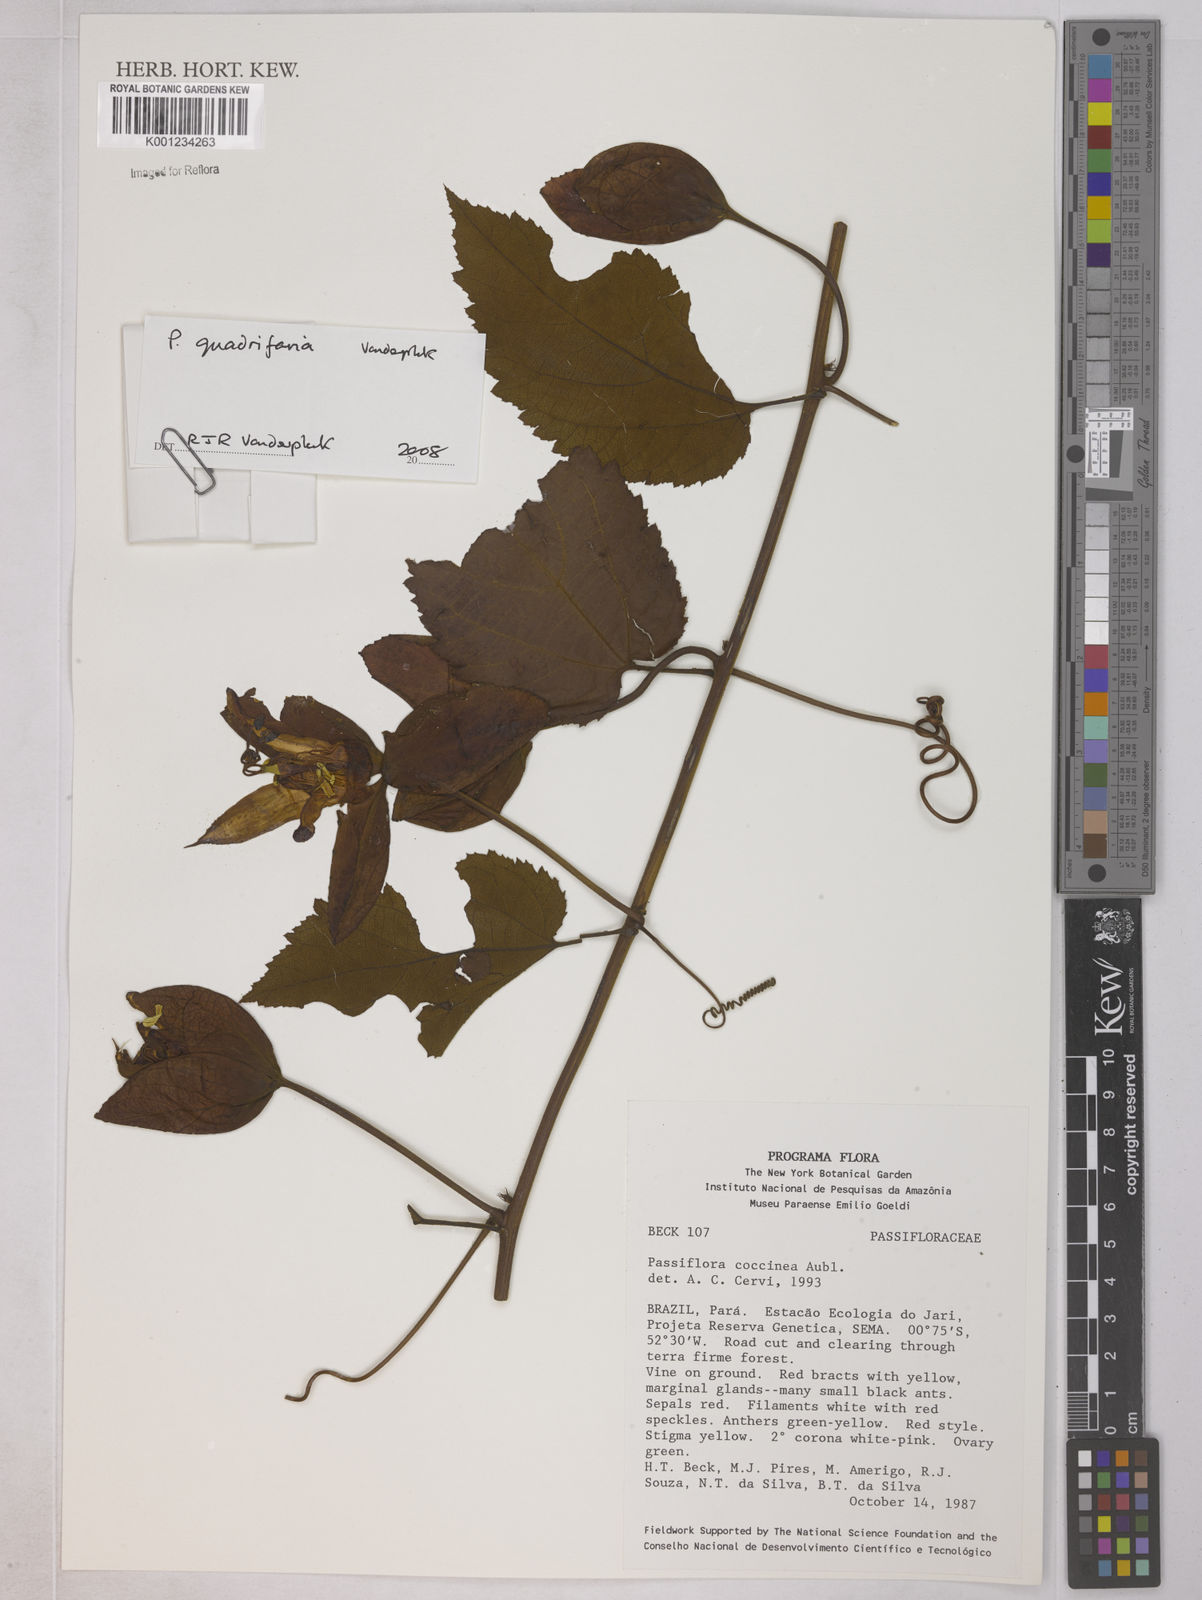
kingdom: Plantae
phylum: Tracheophyta
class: Magnoliopsida
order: Malpighiales
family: Passifloraceae
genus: Passiflora
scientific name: Passiflora coccinea
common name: Scarlet passionflower
